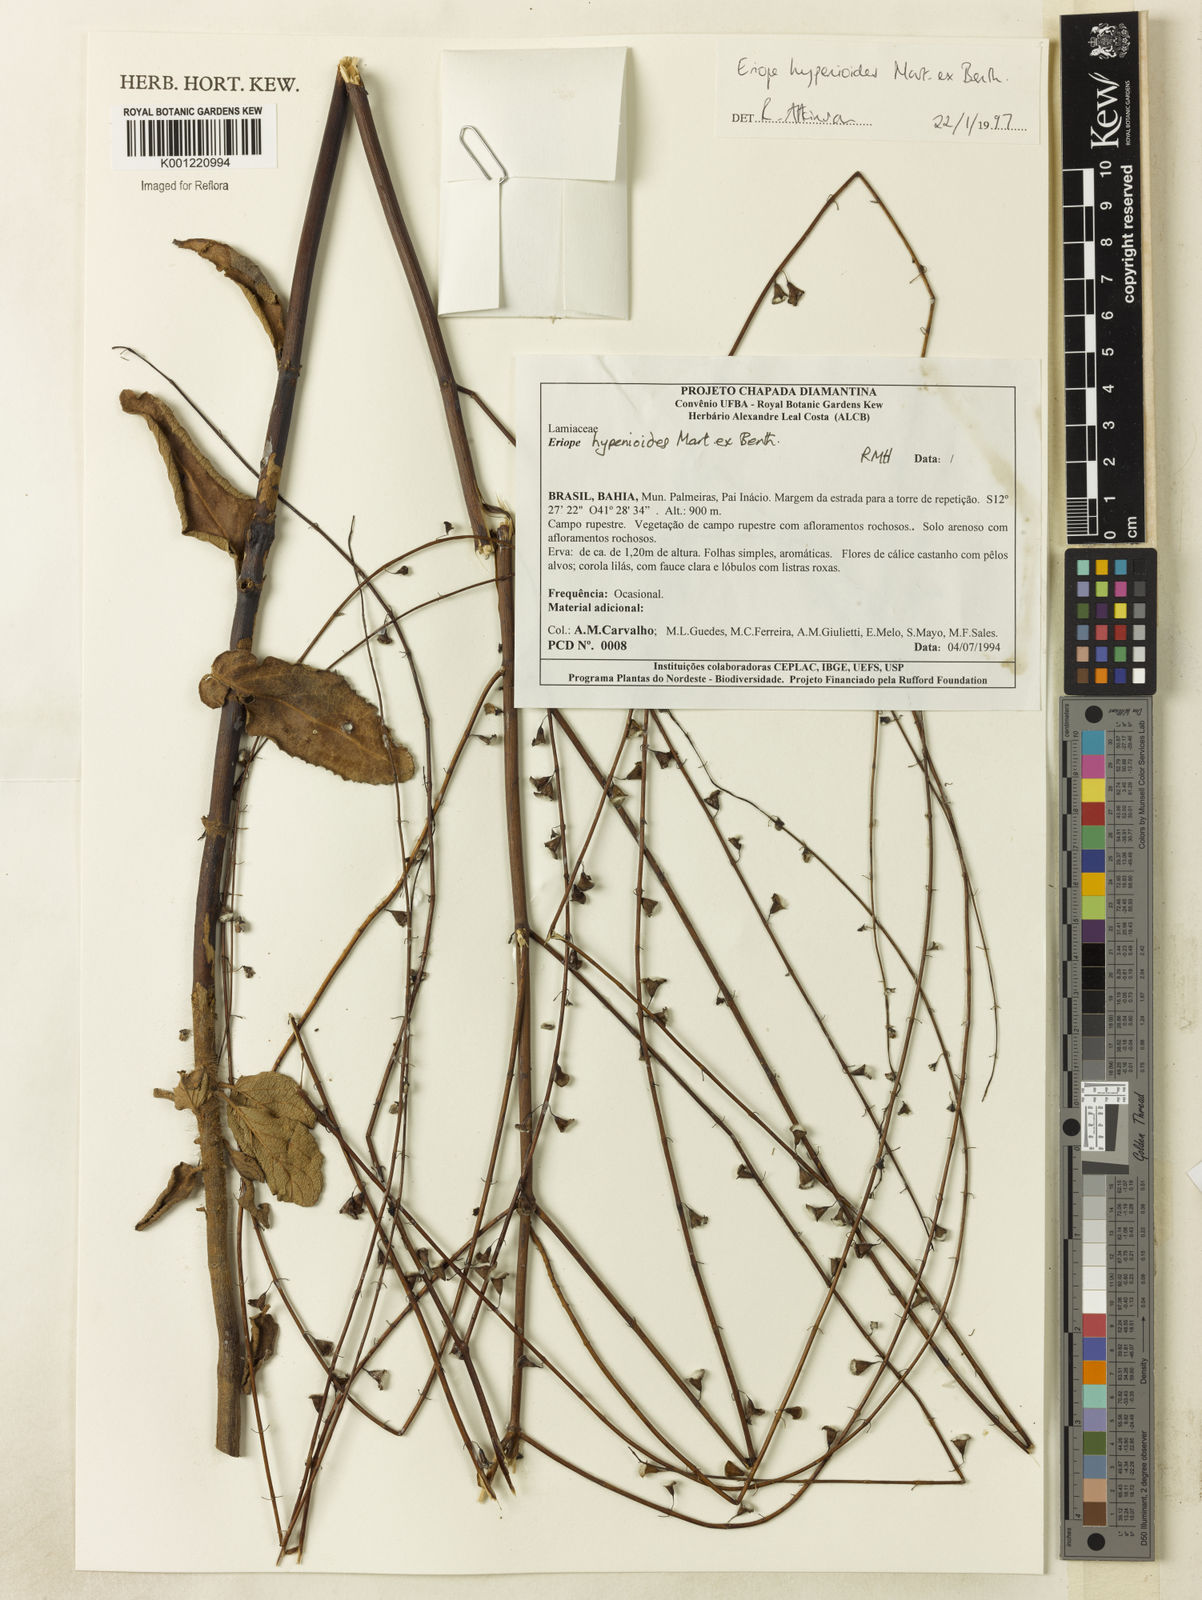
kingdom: Plantae
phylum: Tracheophyta
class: Magnoliopsida
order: Lamiales
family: Lamiaceae
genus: Eriope
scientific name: Eriope hypenioides
